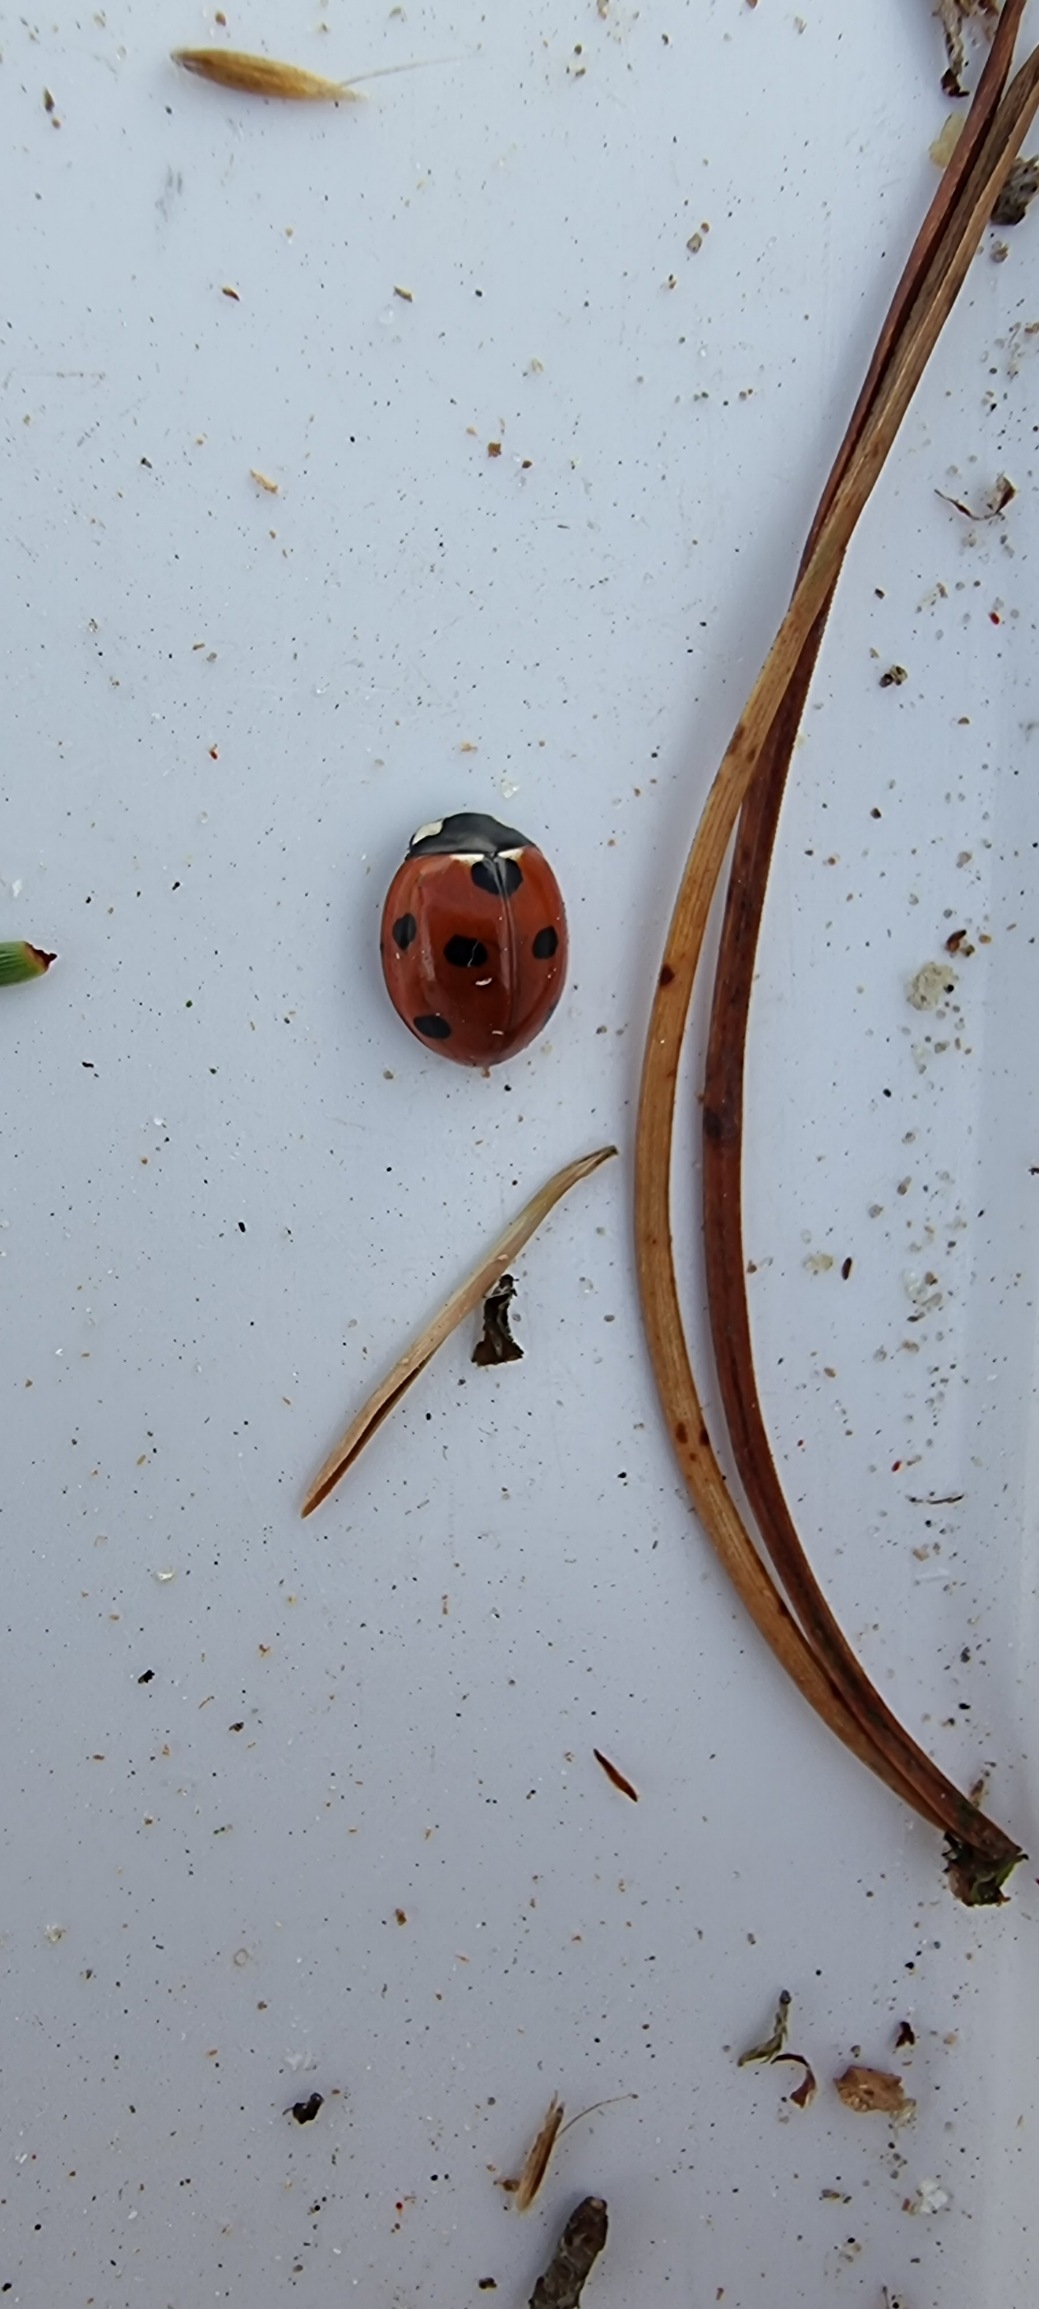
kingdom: Animalia
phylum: Arthropoda
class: Insecta
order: Coleoptera
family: Coccinellidae
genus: Coccinella
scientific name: Coccinella septempunctata
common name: Syvplettet mariehøne
